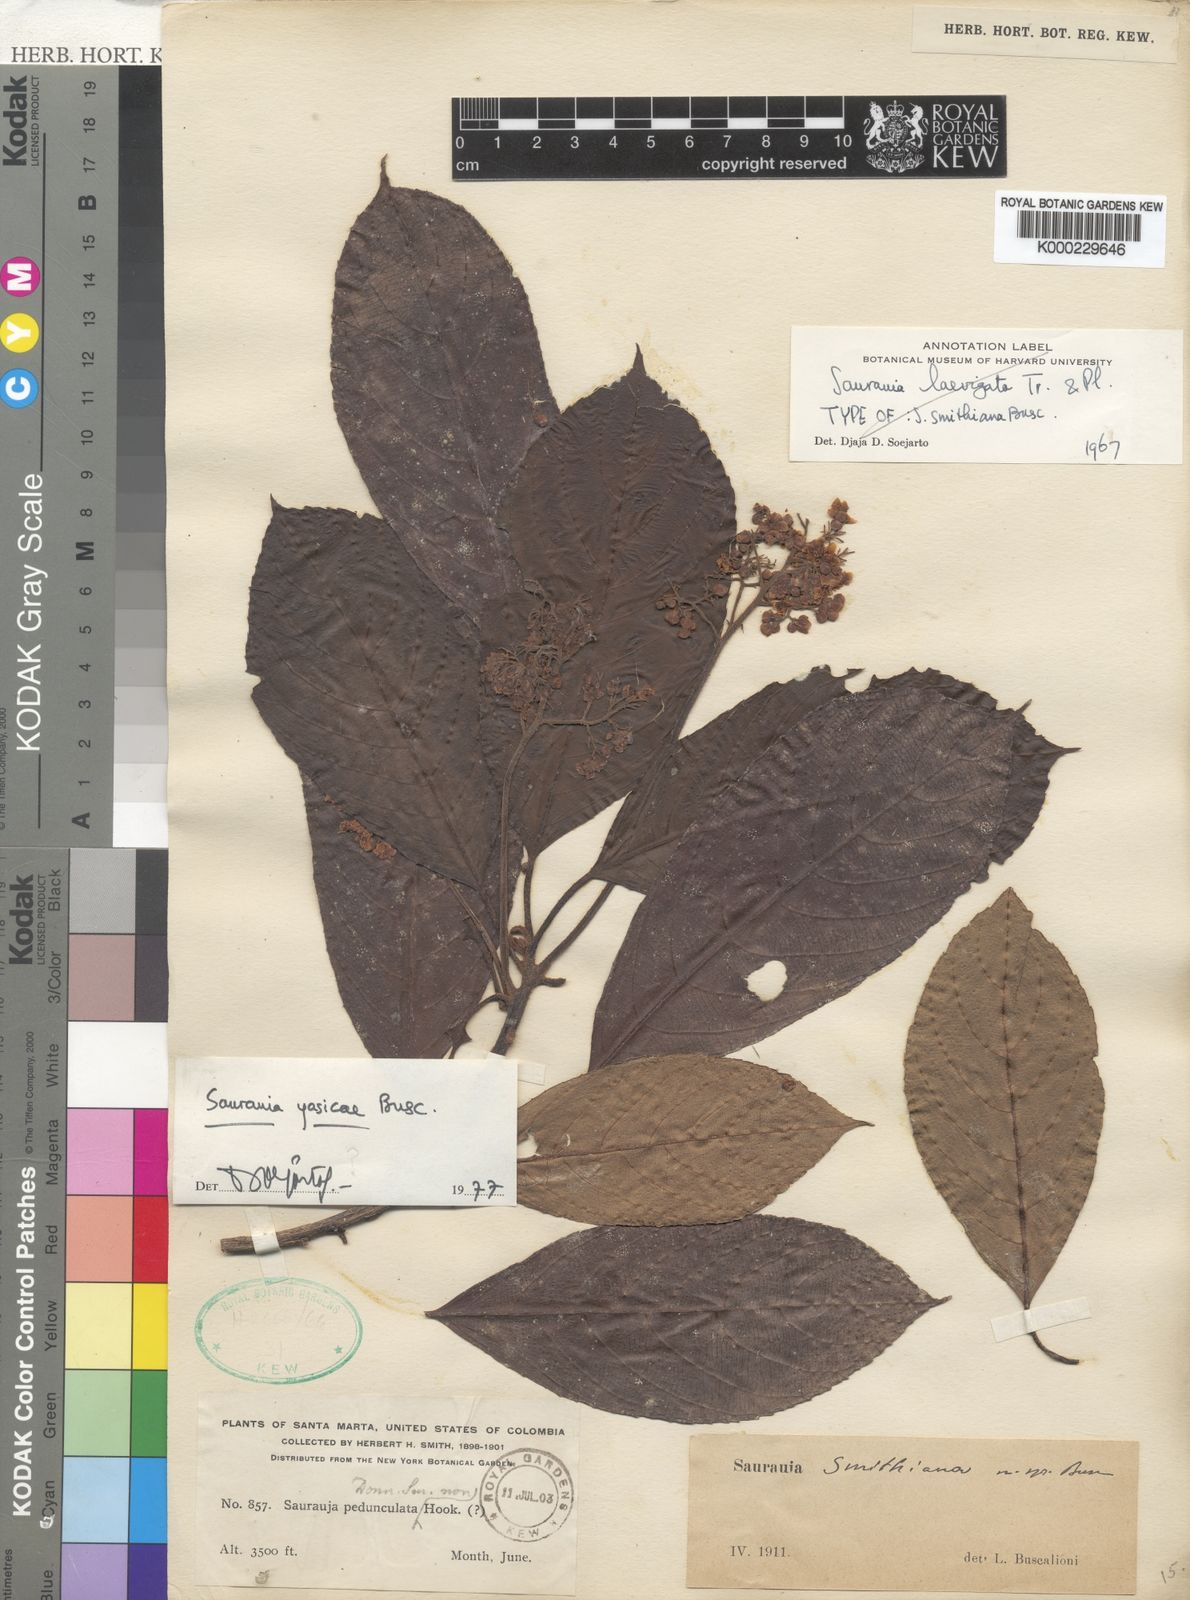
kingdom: Plantae
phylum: Tracheophyta
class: Magnoliopsida
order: Ericales
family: Actinidiaceae
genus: Saurauia
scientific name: Saurauia yasicae
